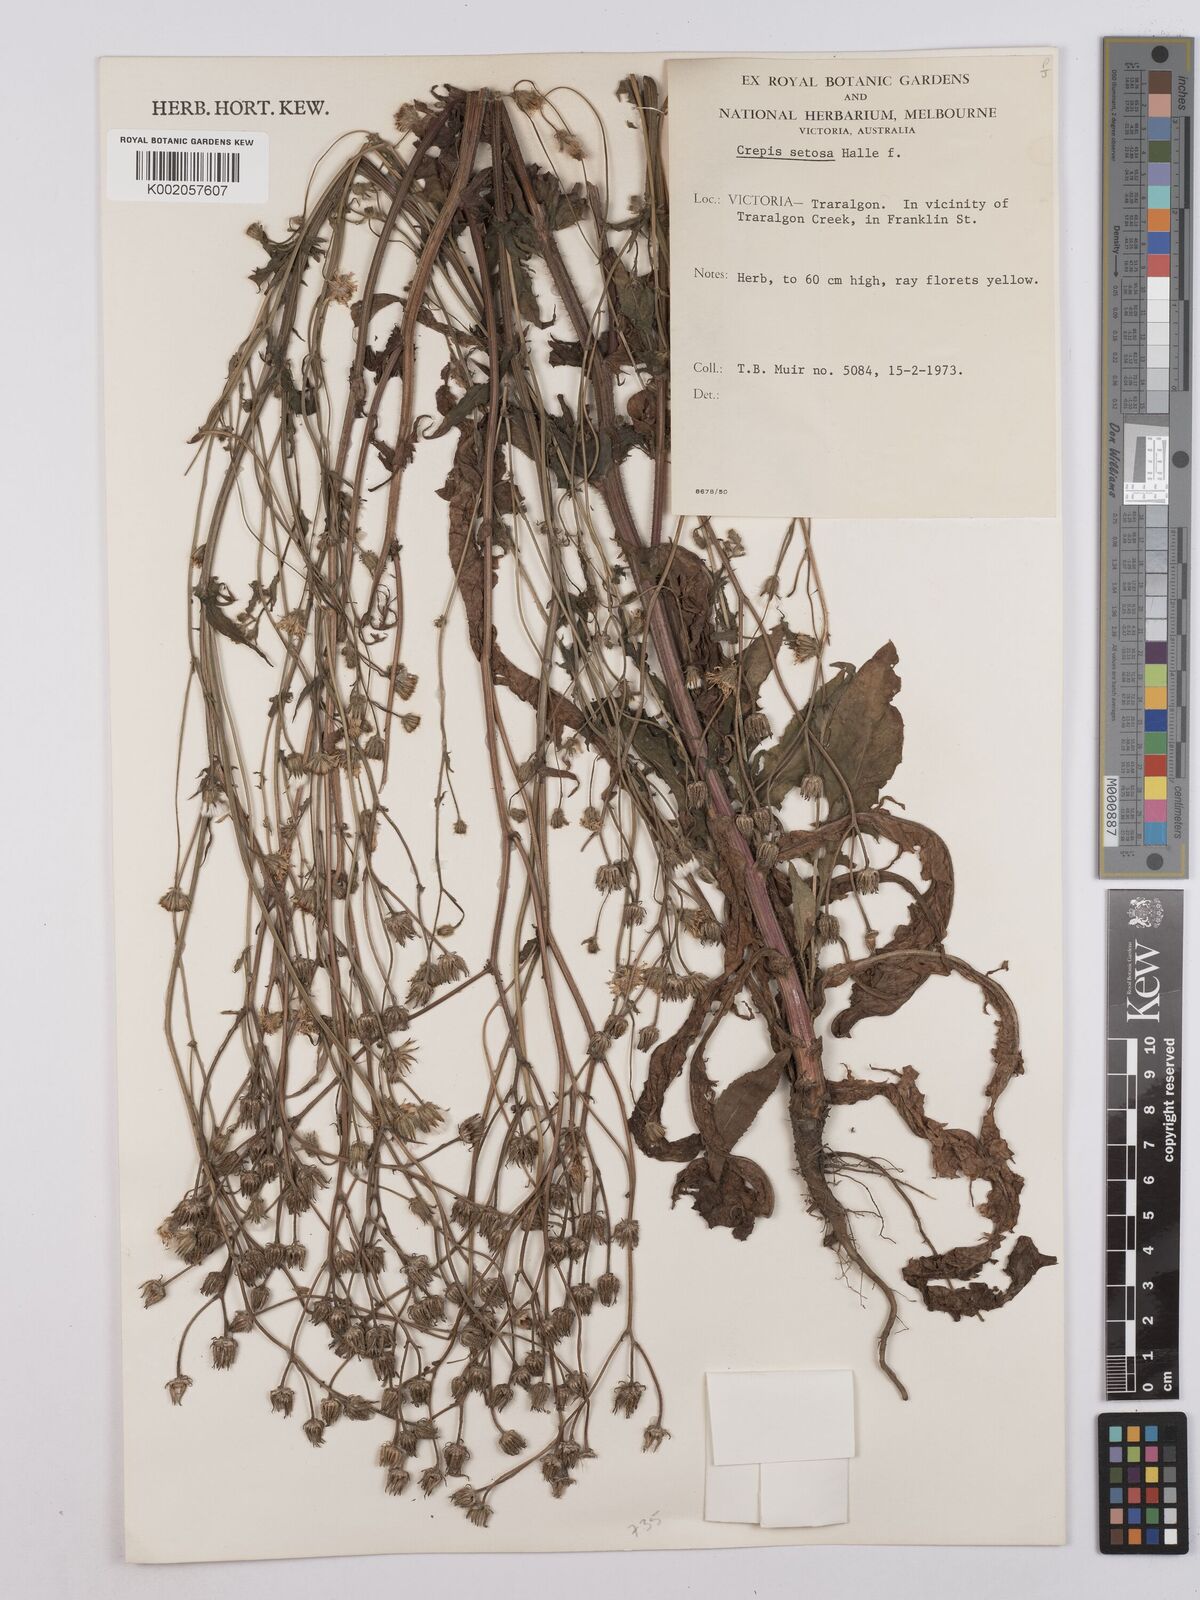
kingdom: Plantae
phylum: Tracheophyta
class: Magnoliopsida
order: Asterales
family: Asteraceae
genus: Crepis
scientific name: Crepis setosa
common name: Bristly hawk's-beard
